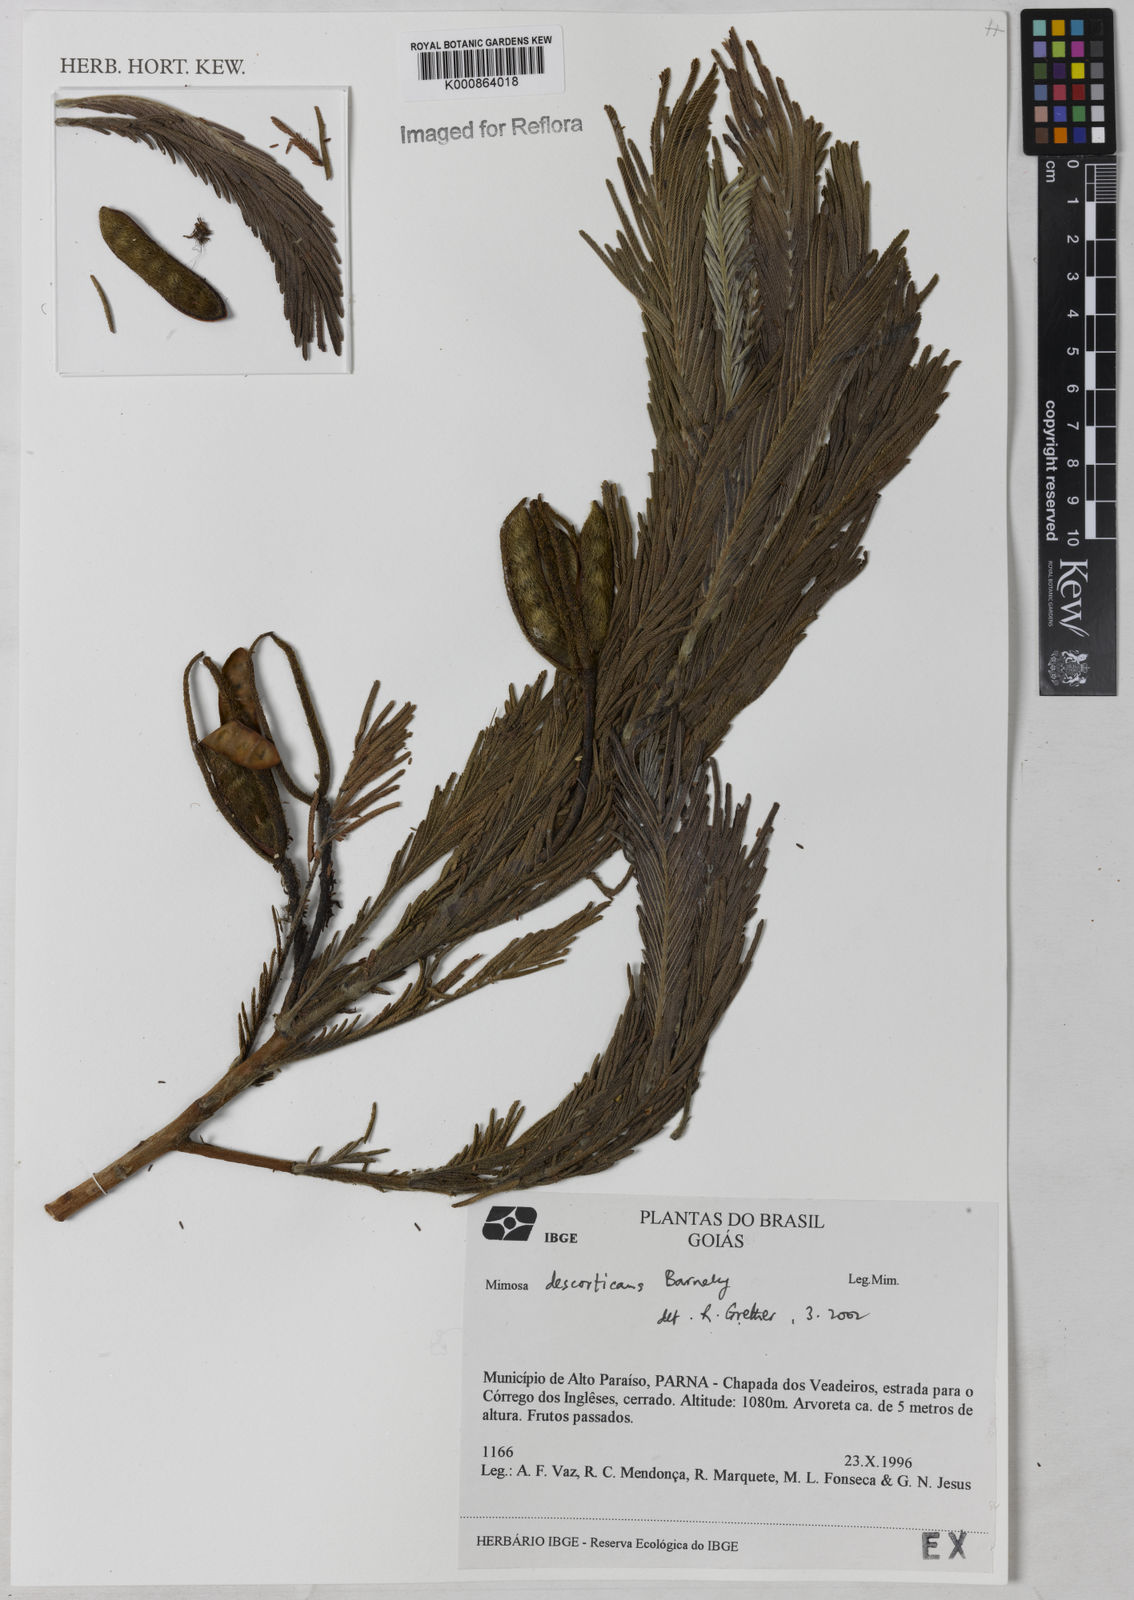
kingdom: Plantae
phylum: Tracheophyta
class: Magnoliopsida
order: Fabales
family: Fabaceae
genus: Mimosa
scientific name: Mimosa rheiptera
